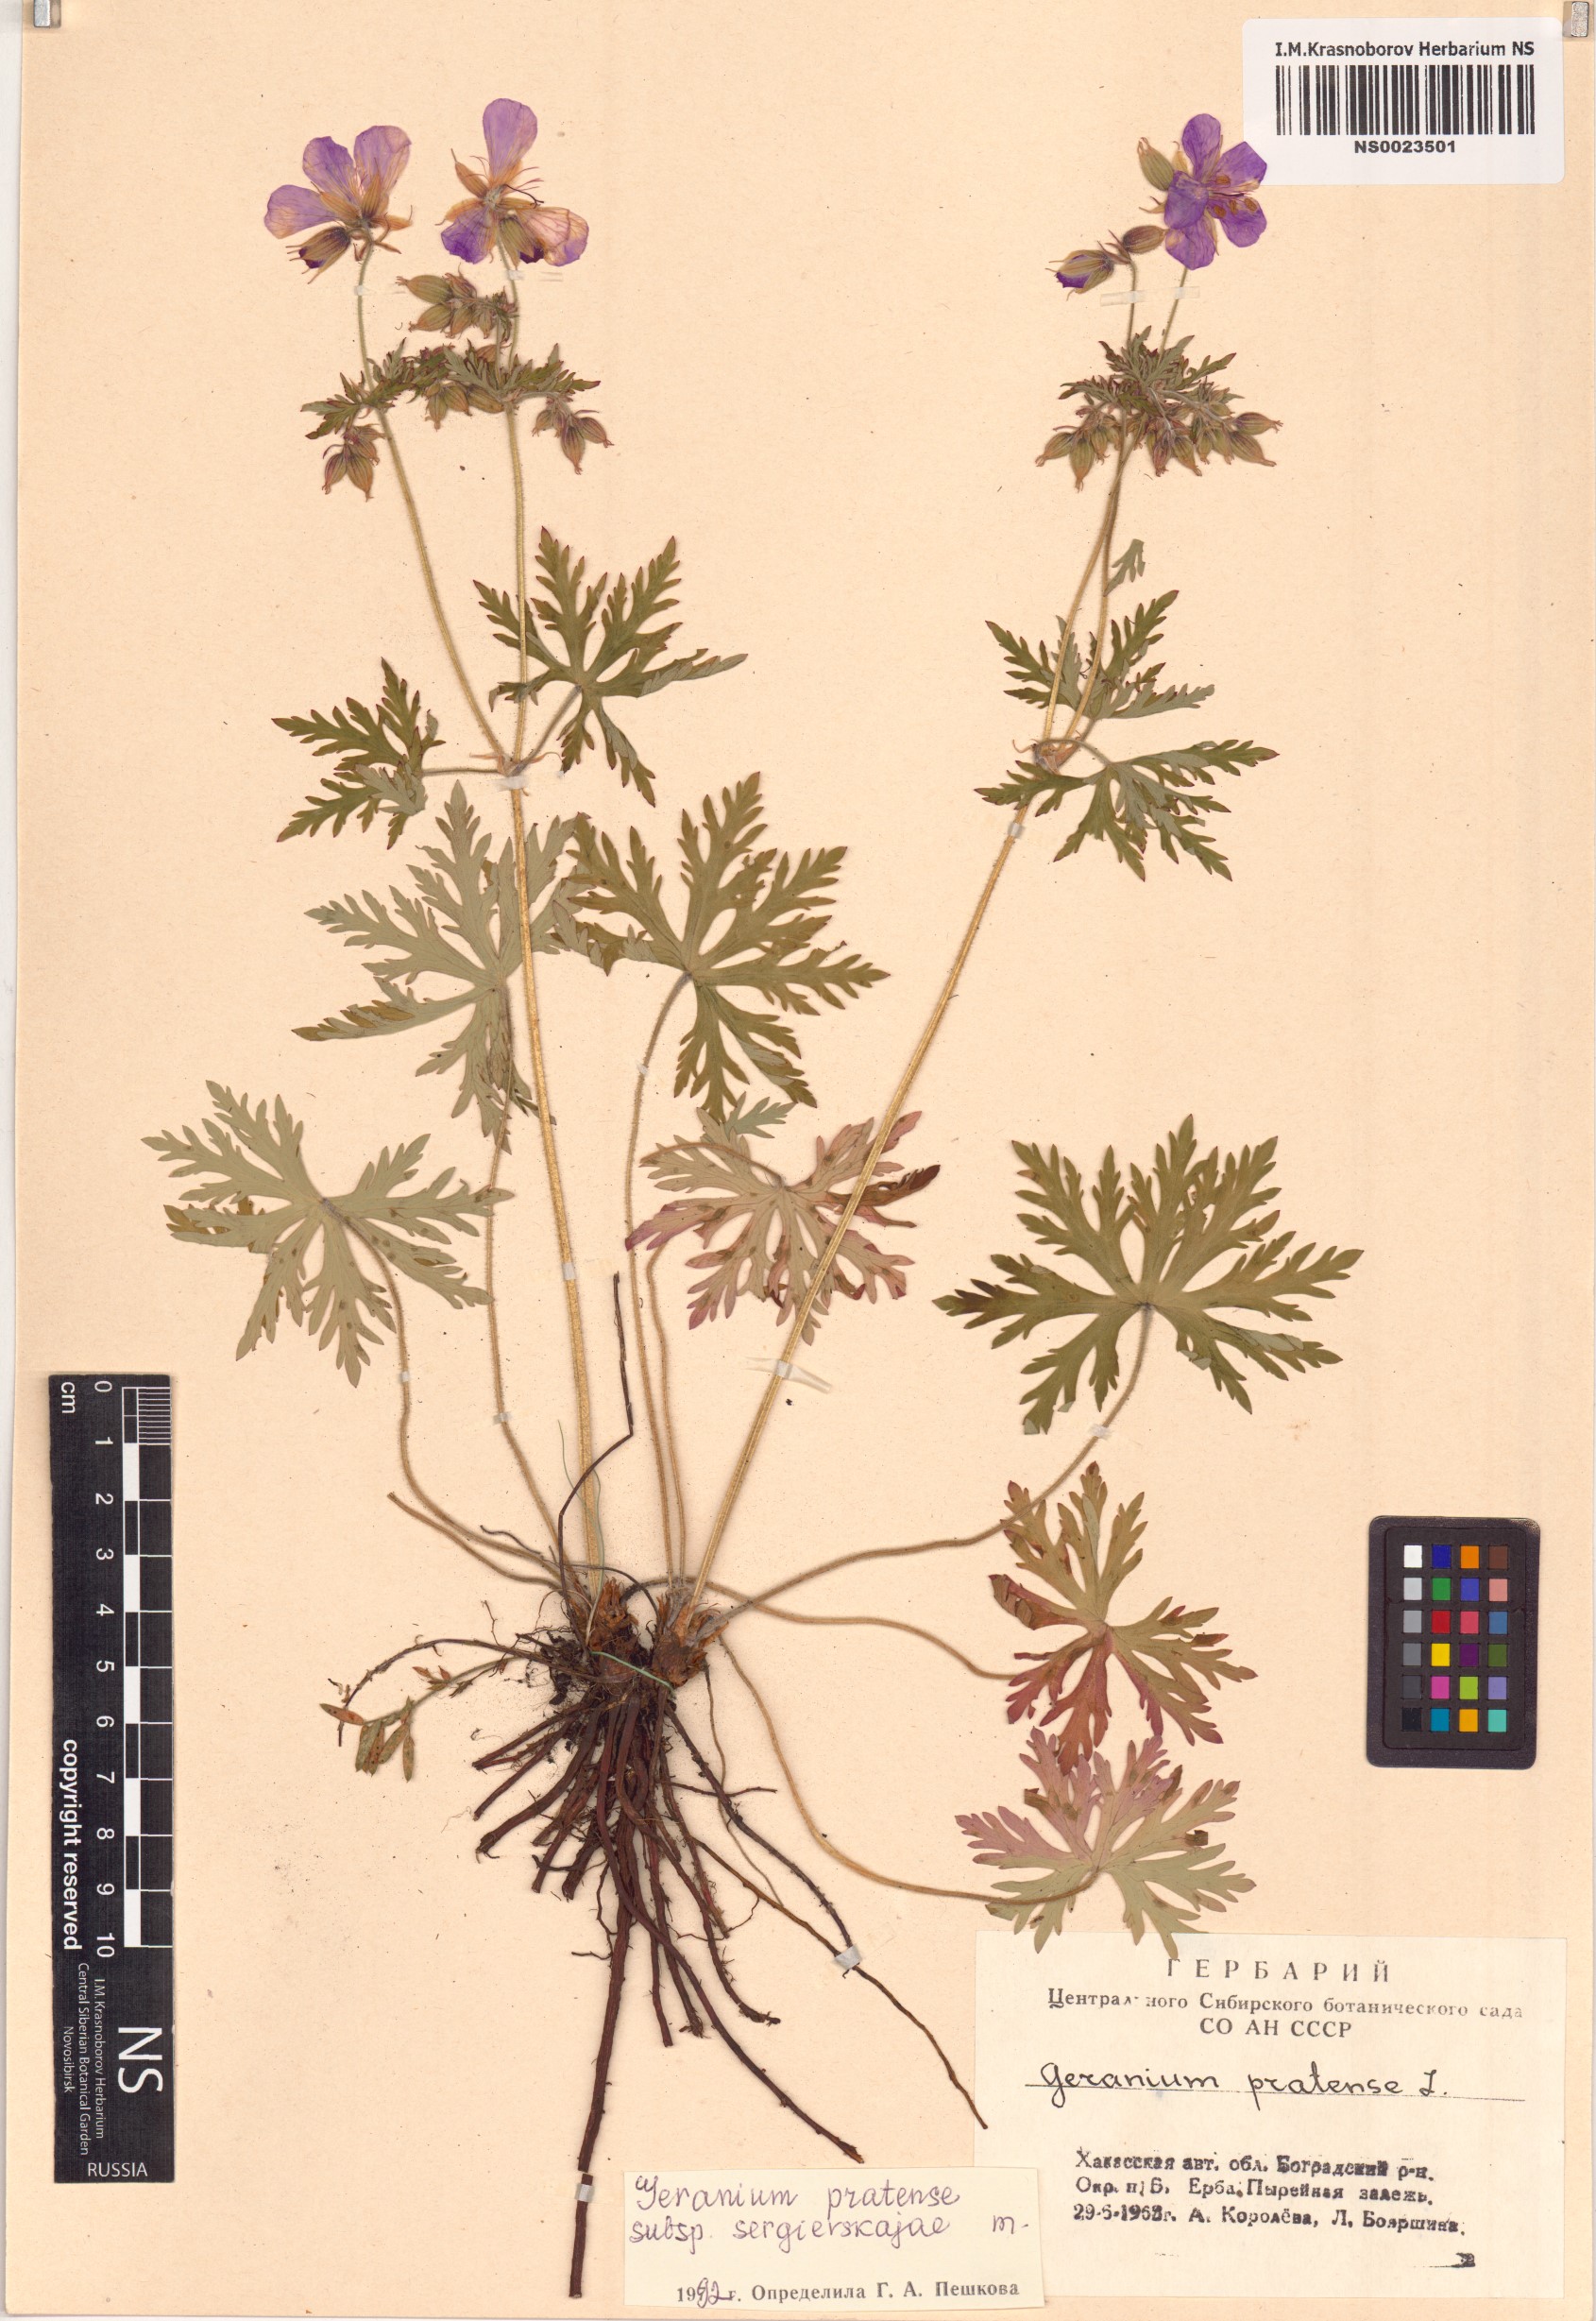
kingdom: Plantae
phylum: Tracheophyta
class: Magnoliopsida
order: Geraniales
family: Geraniaceae
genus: Geranium
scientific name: Geranium pratense
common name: Meadow crane's-bill
